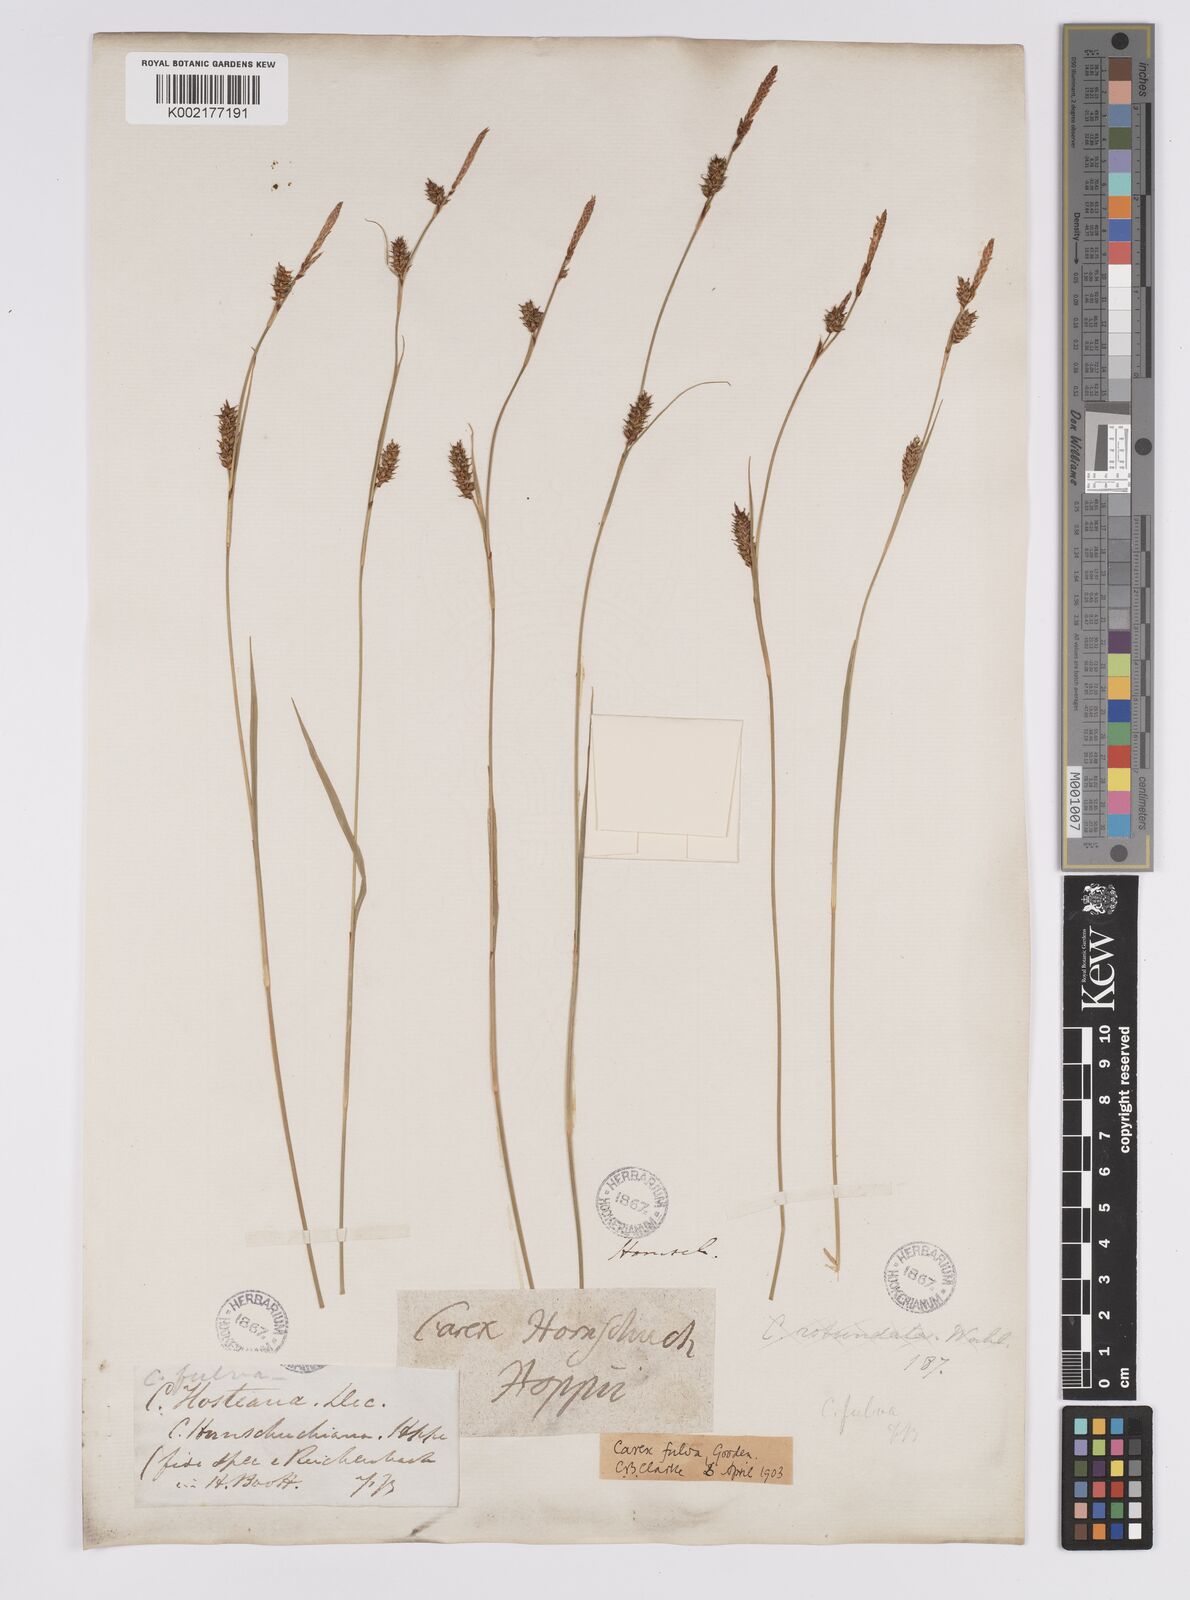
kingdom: Plantae
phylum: Tracheophyta
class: Liliopsida
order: Poales
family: Cyperaceae
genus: Carex
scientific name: Carex hostiana
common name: Tawny sedge
